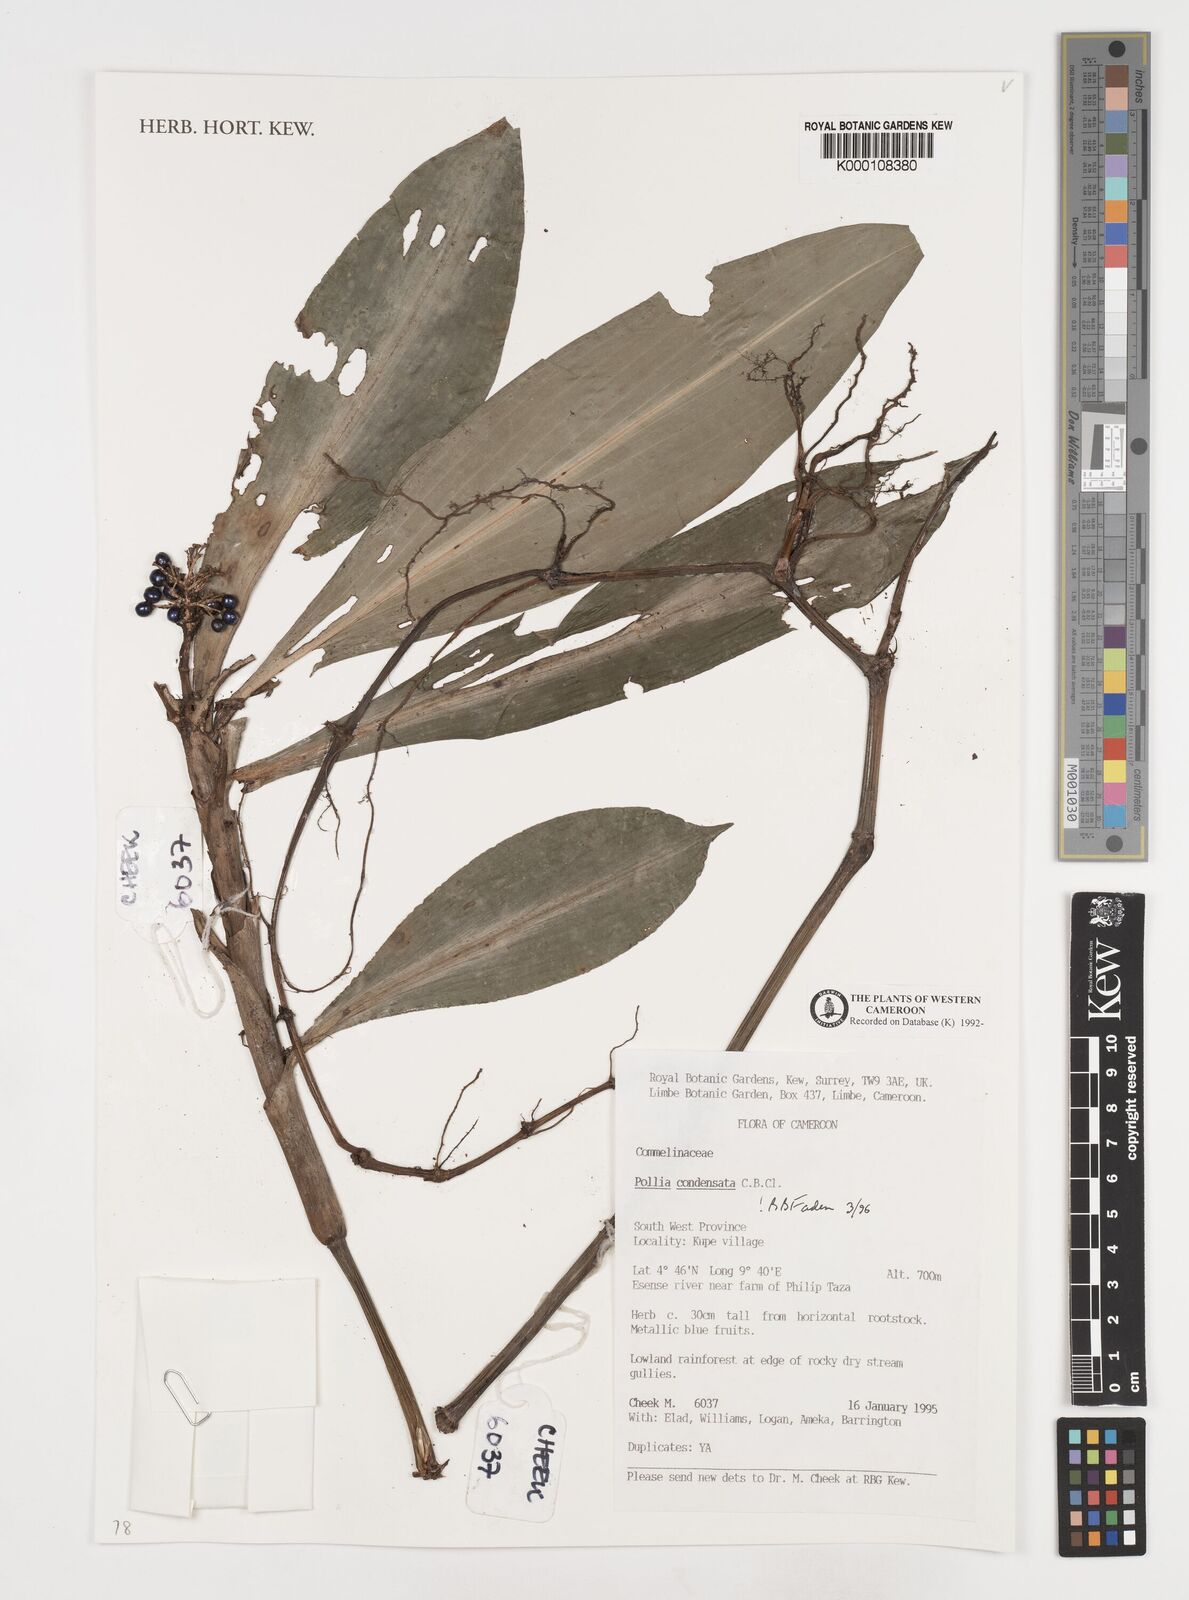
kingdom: Plantae
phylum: Tracheophyta
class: Liliopsida
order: Commelinales
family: Commelinaceae
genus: Pollia
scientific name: Pollia condensata
